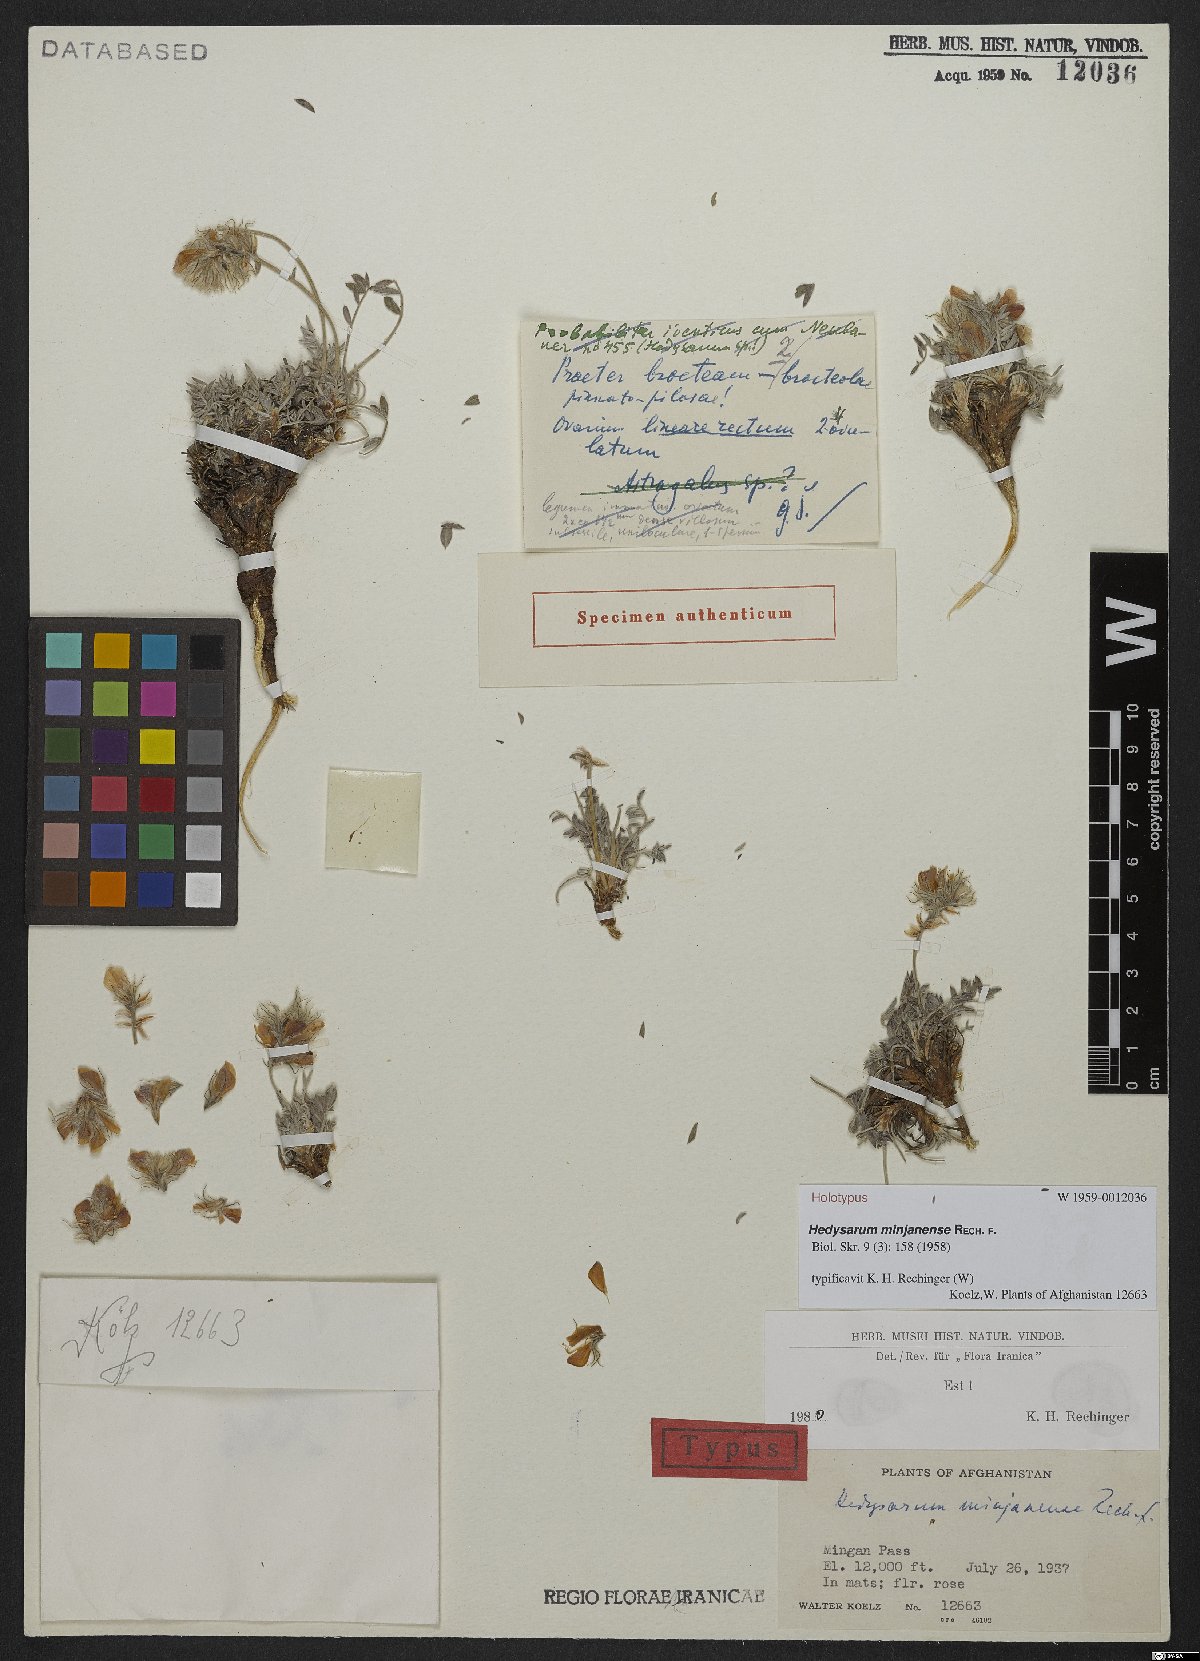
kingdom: Plantae
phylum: Tracheophyta
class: Magnoliopsida
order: Fabales
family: Fabaceae
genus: Hedysarum
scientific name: Hedysarum minjanense
